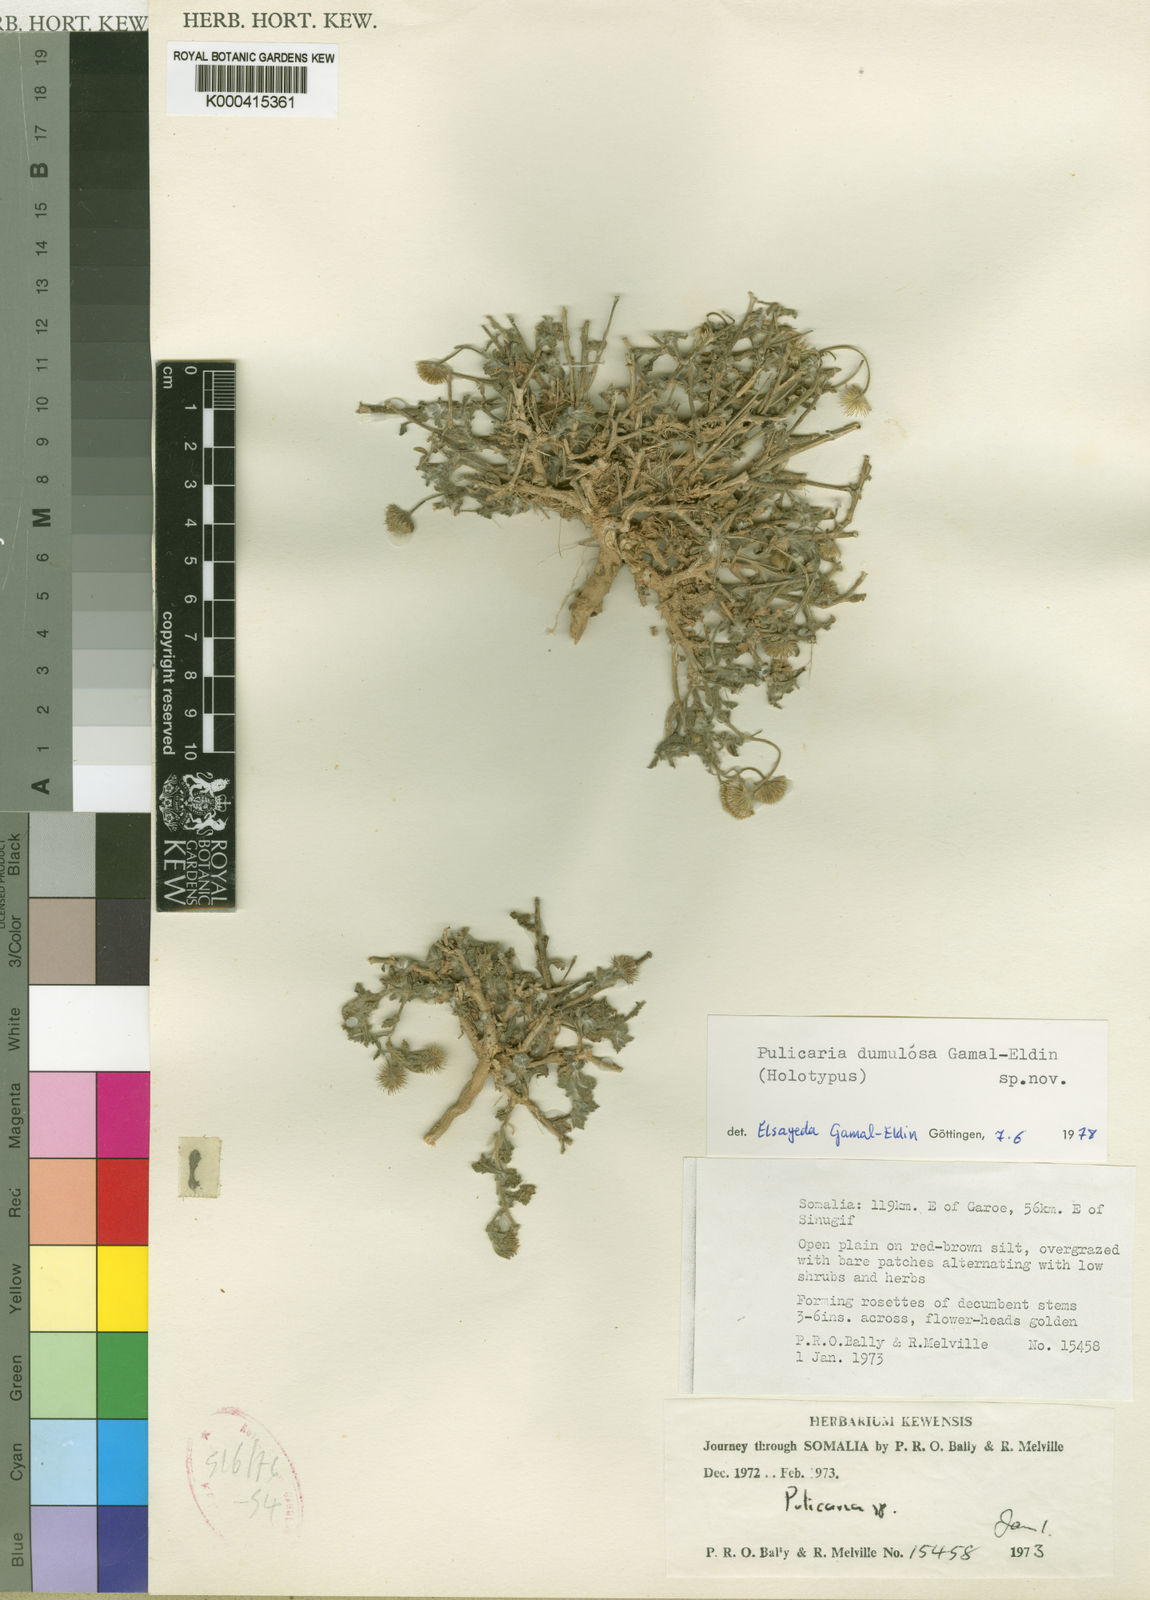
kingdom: Plantae
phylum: Tracheophyta
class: Magnoliopsida
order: Asterales
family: Asteraceae
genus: Pulicaria
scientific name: Pulicaria dumulosa
